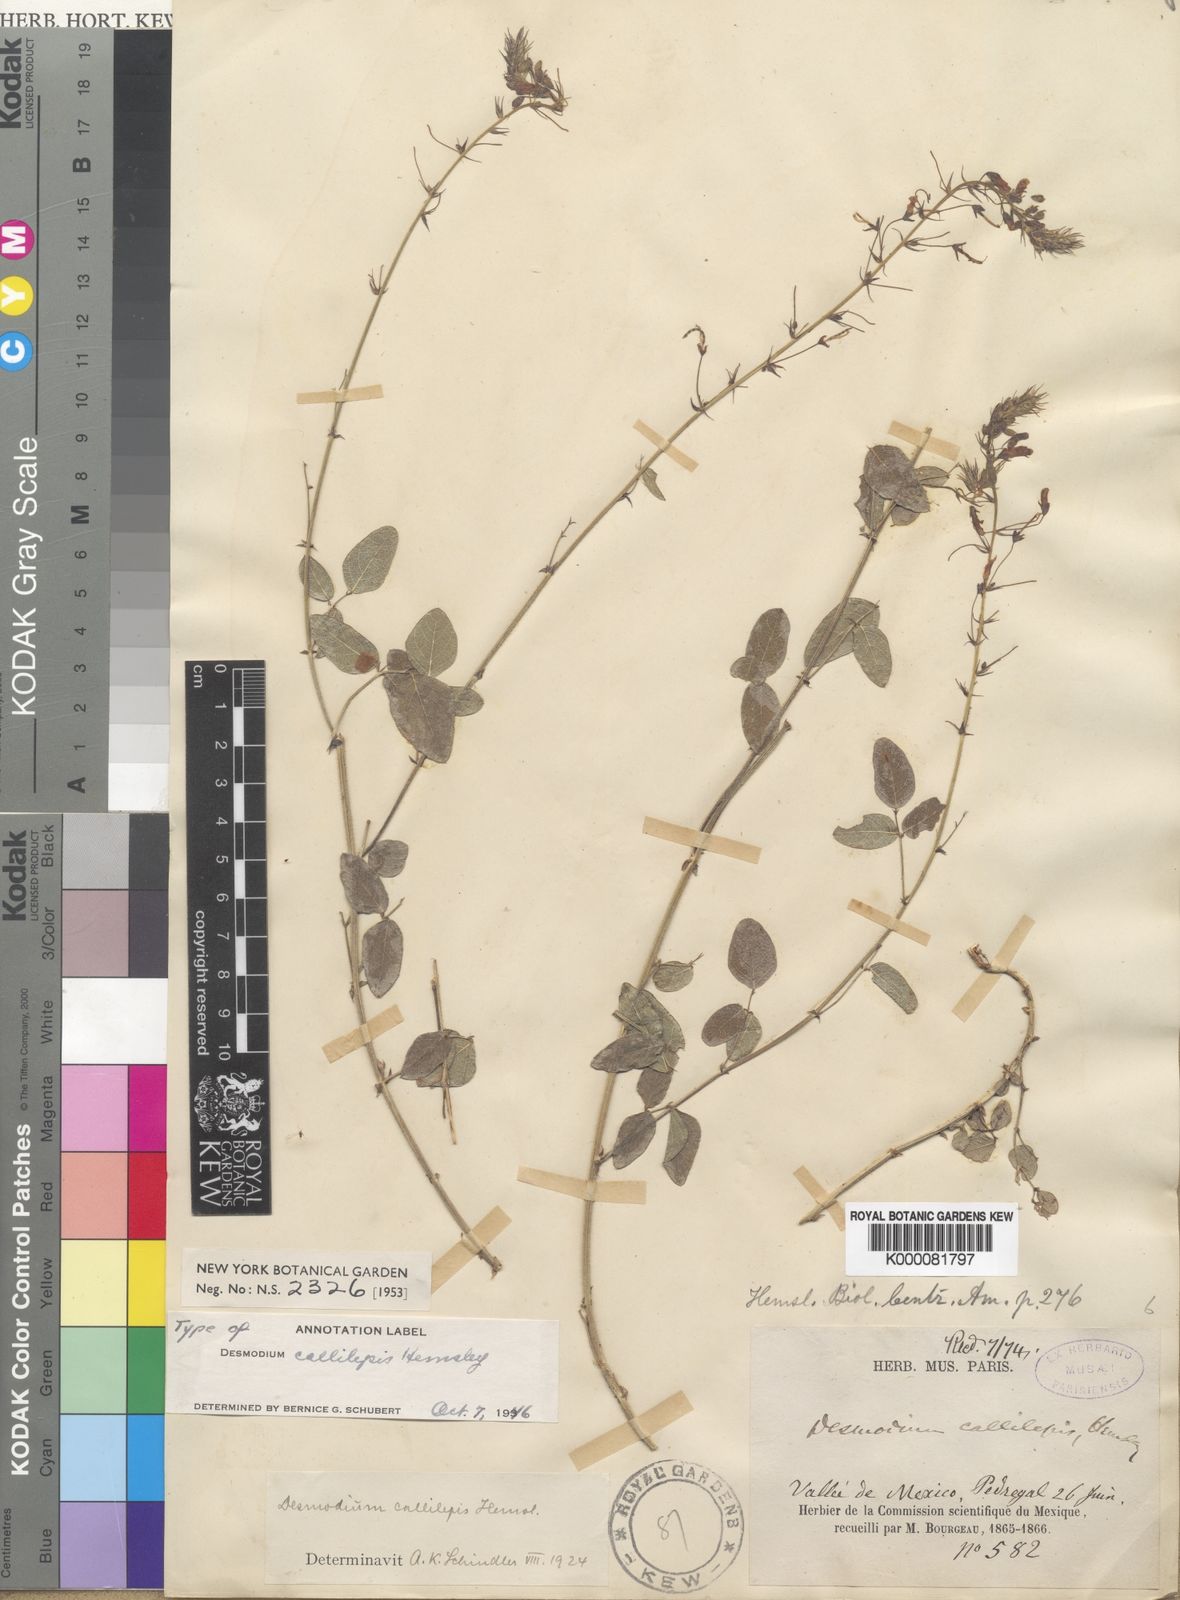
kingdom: Plantae
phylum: Tracheophyta
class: Magnoliopsida
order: Fabales
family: Fabaceae
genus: Desmodium
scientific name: Desmodium callilepis
